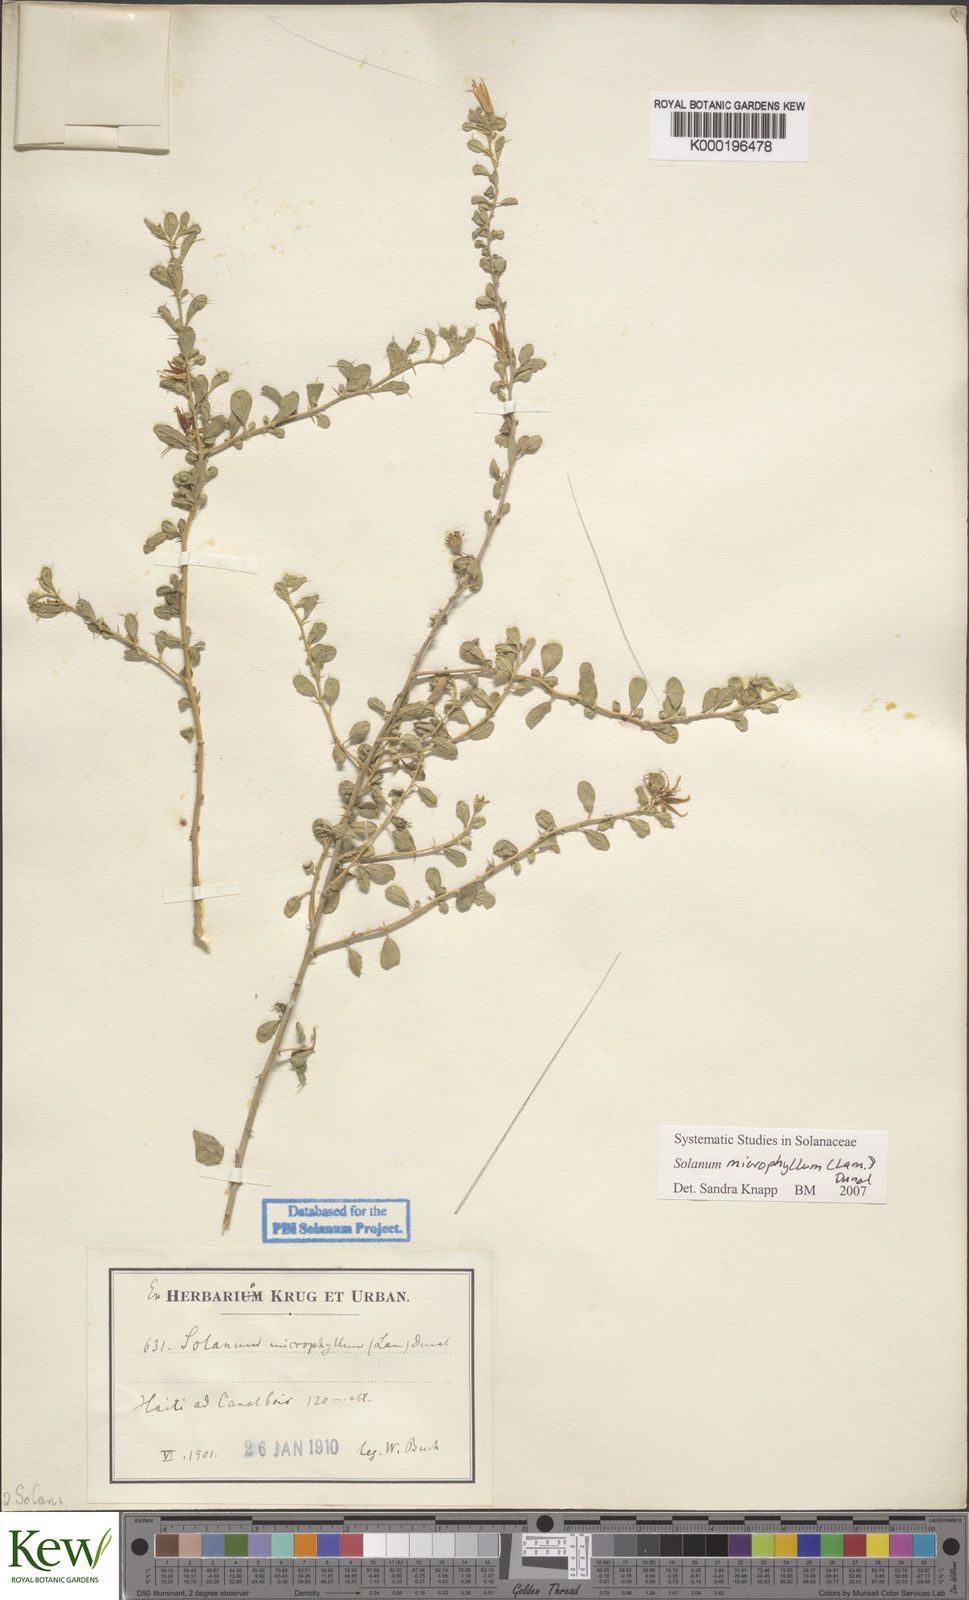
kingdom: Plantae
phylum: Tracheophyta
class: Magnoliopsida
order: Solanales
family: Solanaceae
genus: Solanum
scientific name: Solanum
